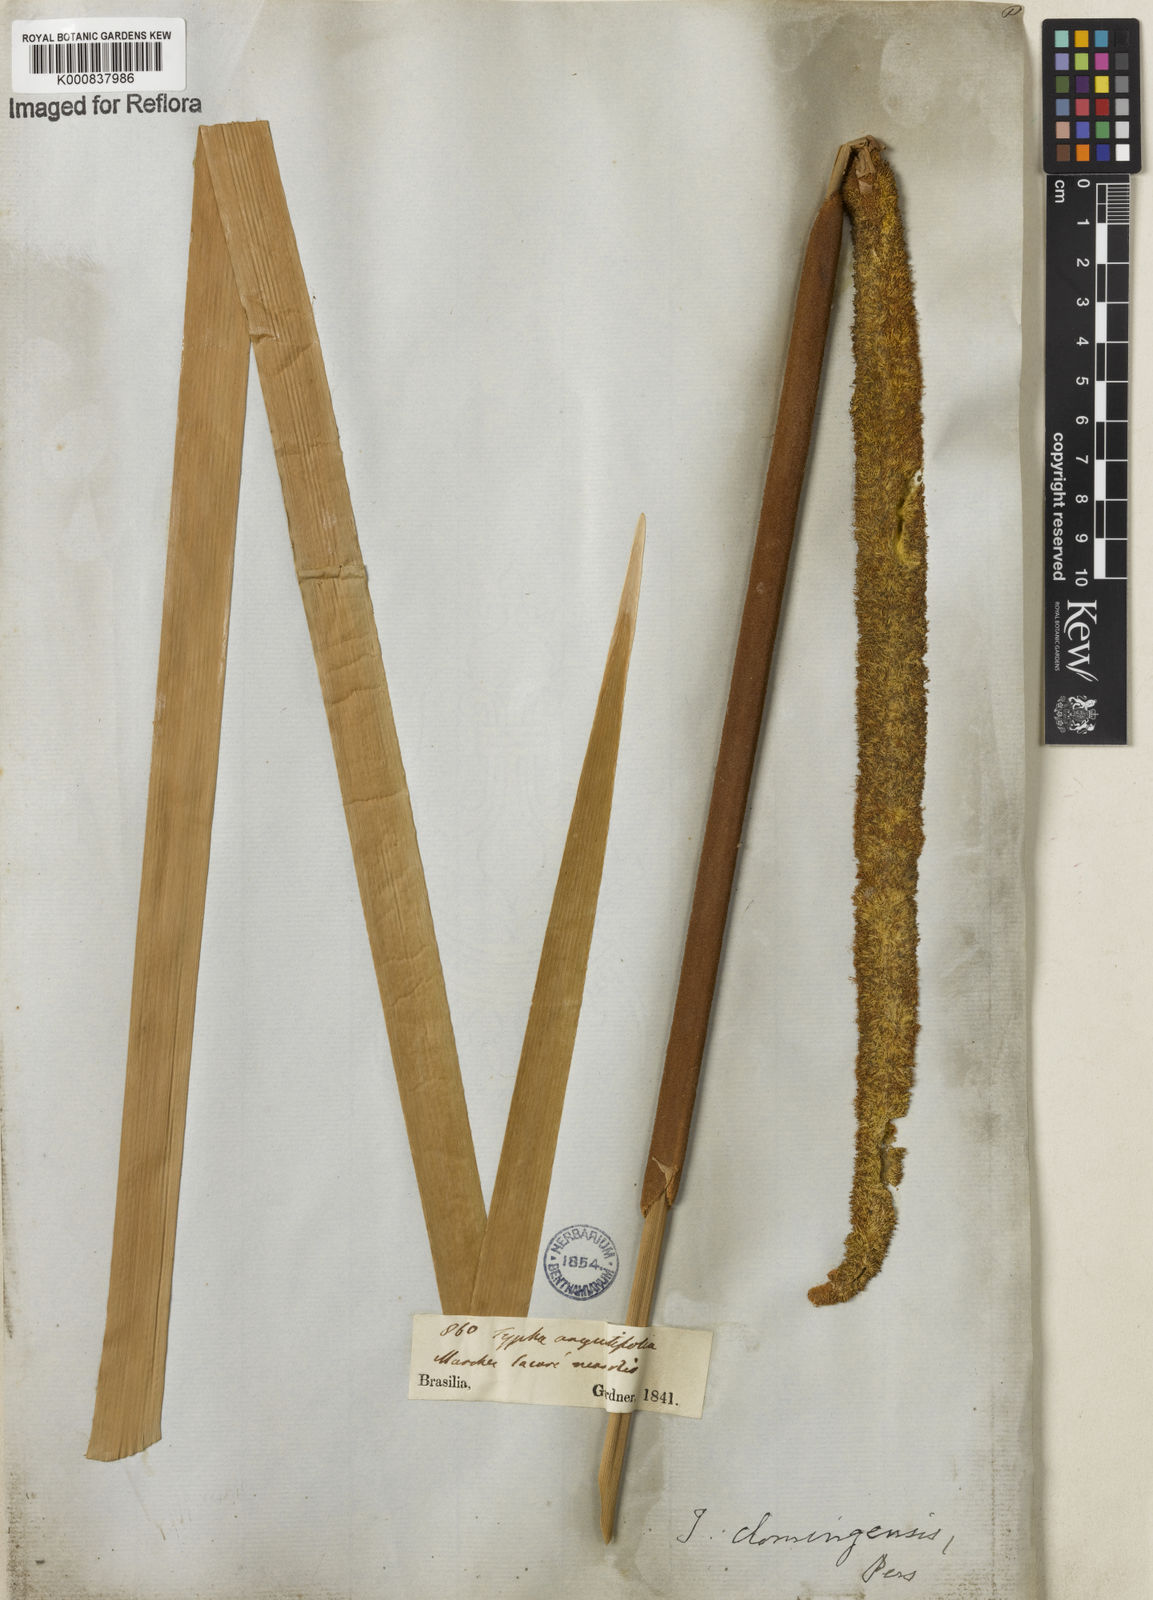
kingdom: Plantae
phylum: Tracheophyta
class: Liliopsida
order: Poales
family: Typhaceae
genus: Typha
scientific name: Typha
